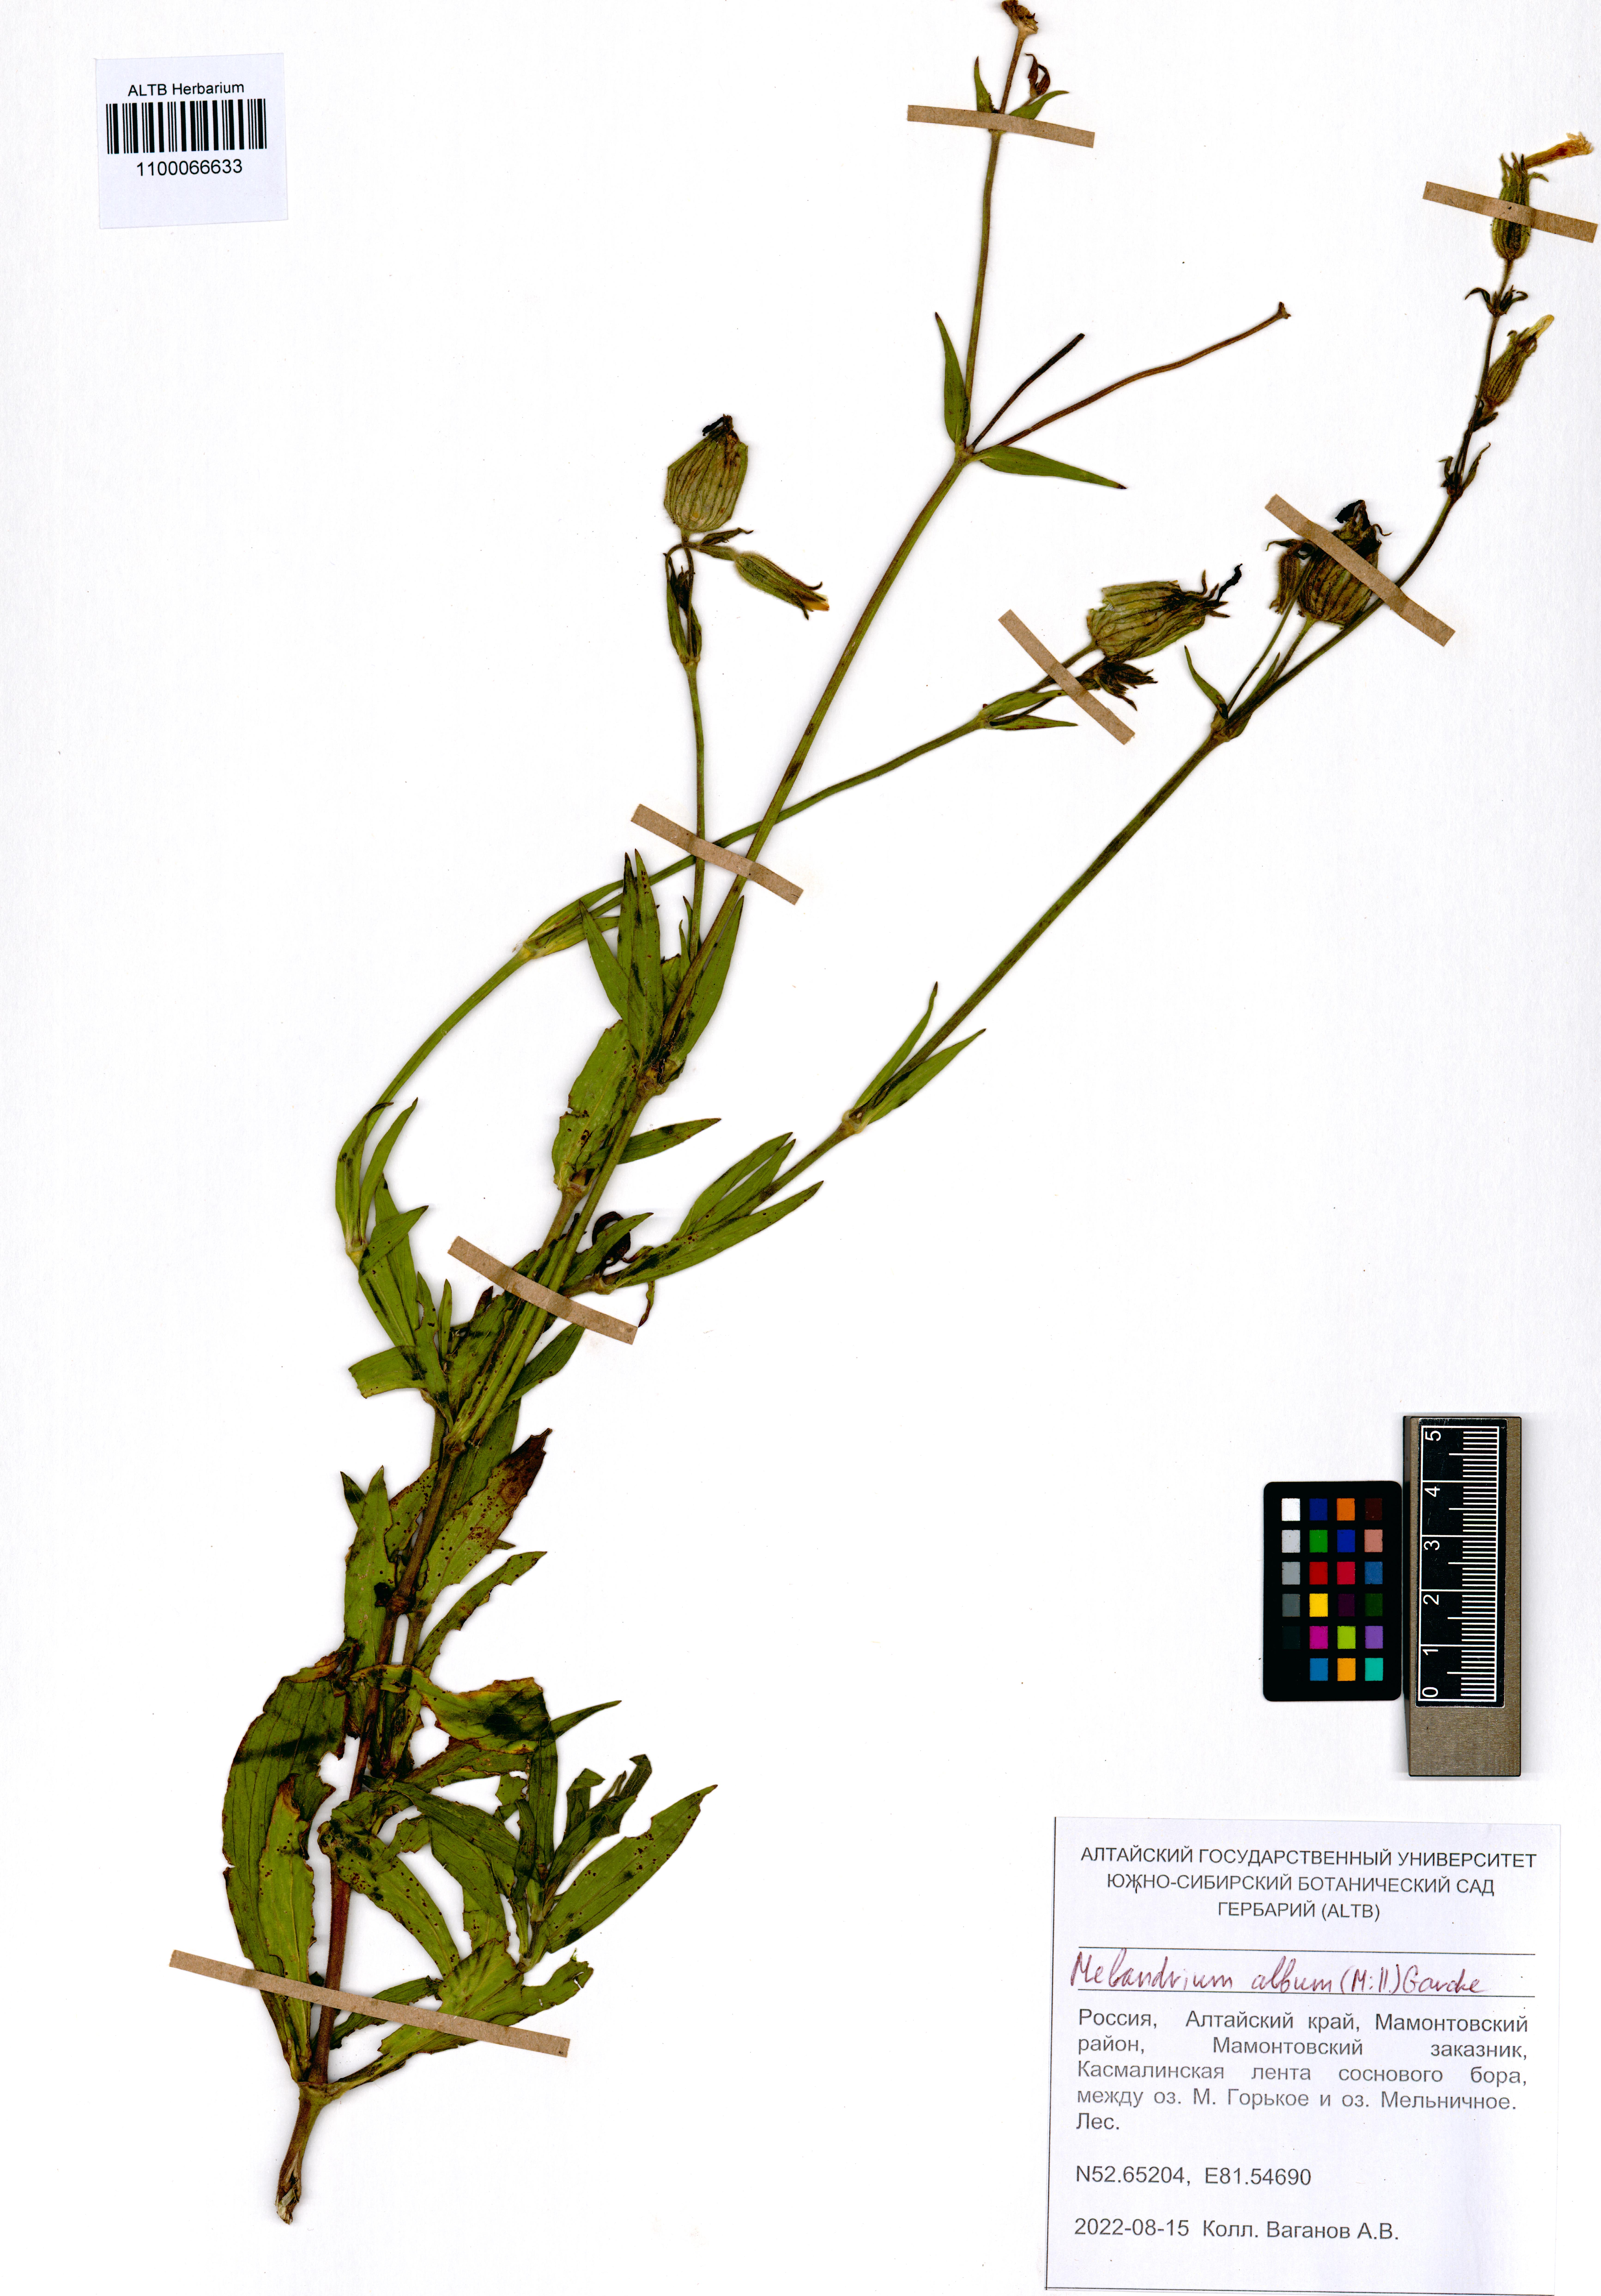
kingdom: Plantae
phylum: Tracheophyta
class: Magnoliopsida
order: Caryophyllales
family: Caryophyllaceae
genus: Silene
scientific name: Silene latifolia
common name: White campion
